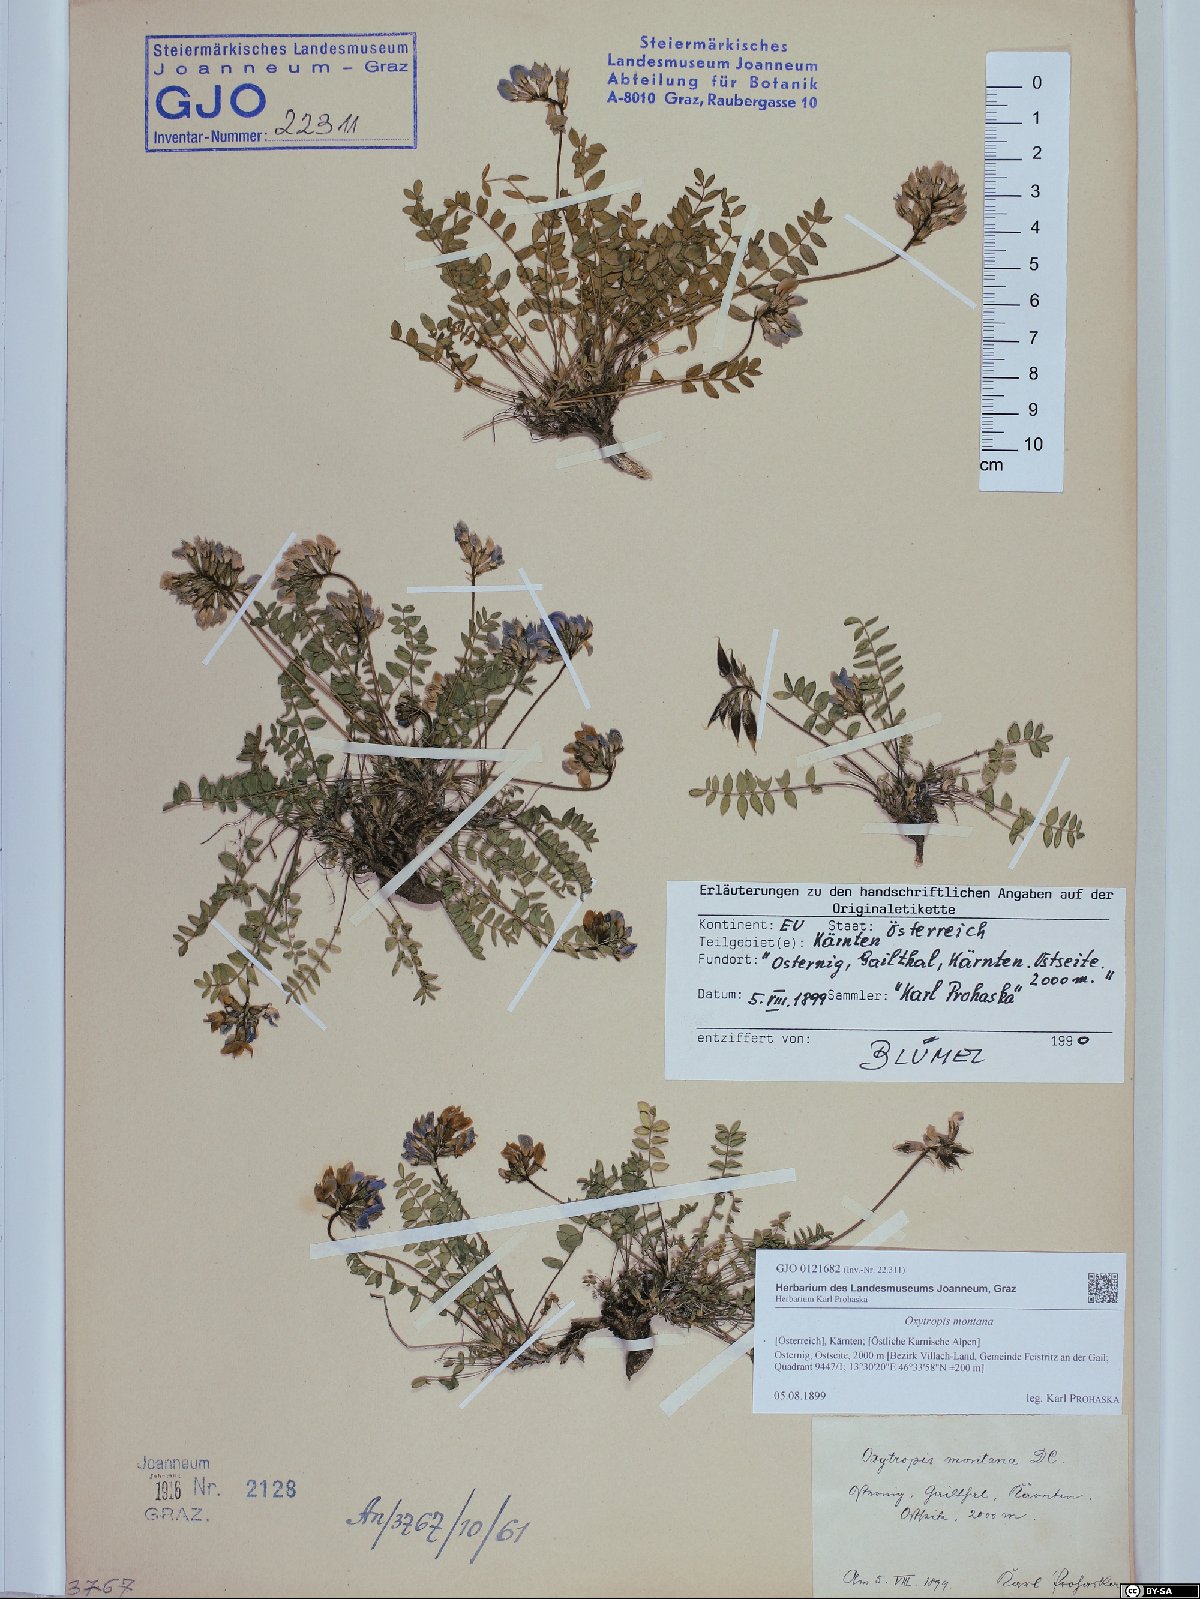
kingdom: Plantae
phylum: Tracheophyta
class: Magnoliopsida
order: Fabales
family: Fabaceae
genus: Oxytropis
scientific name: Oxytropis montana
